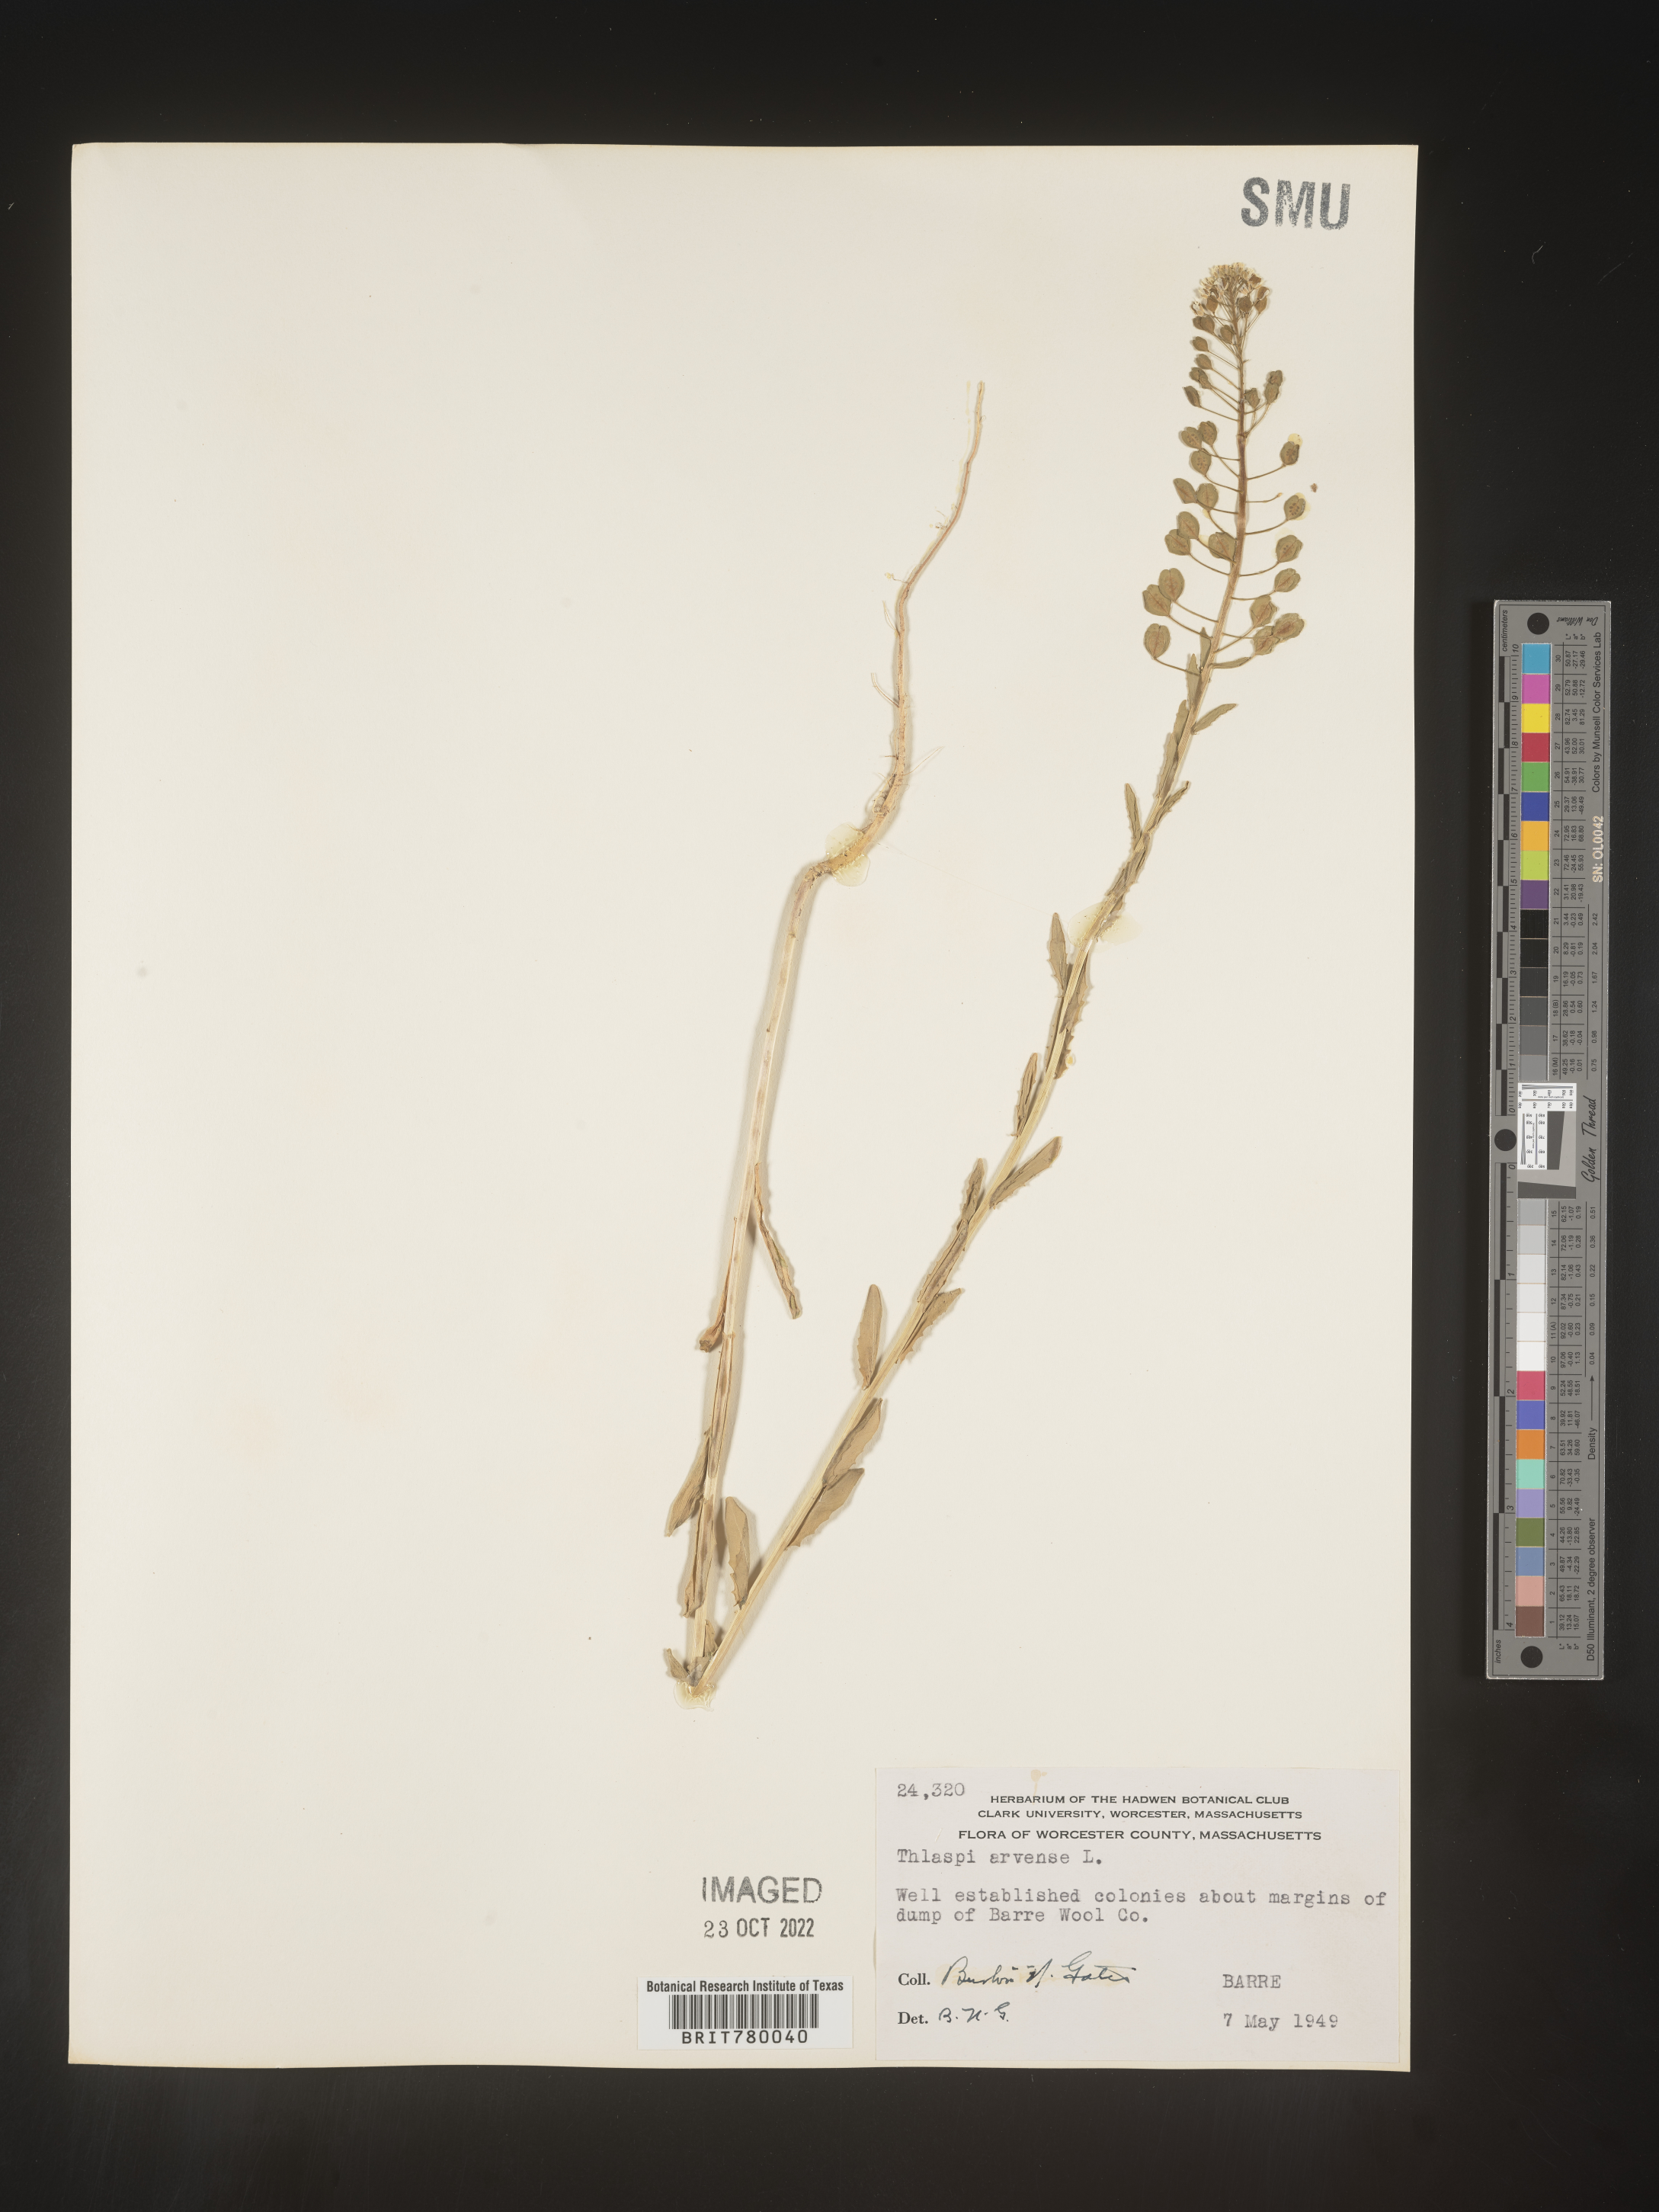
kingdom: Plantae
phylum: Tracheophyta
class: Magnoliopsida
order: Brassicales
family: Brassicaceae
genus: Thlaspi
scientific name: Thlaspi arvense
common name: Field pennycress
